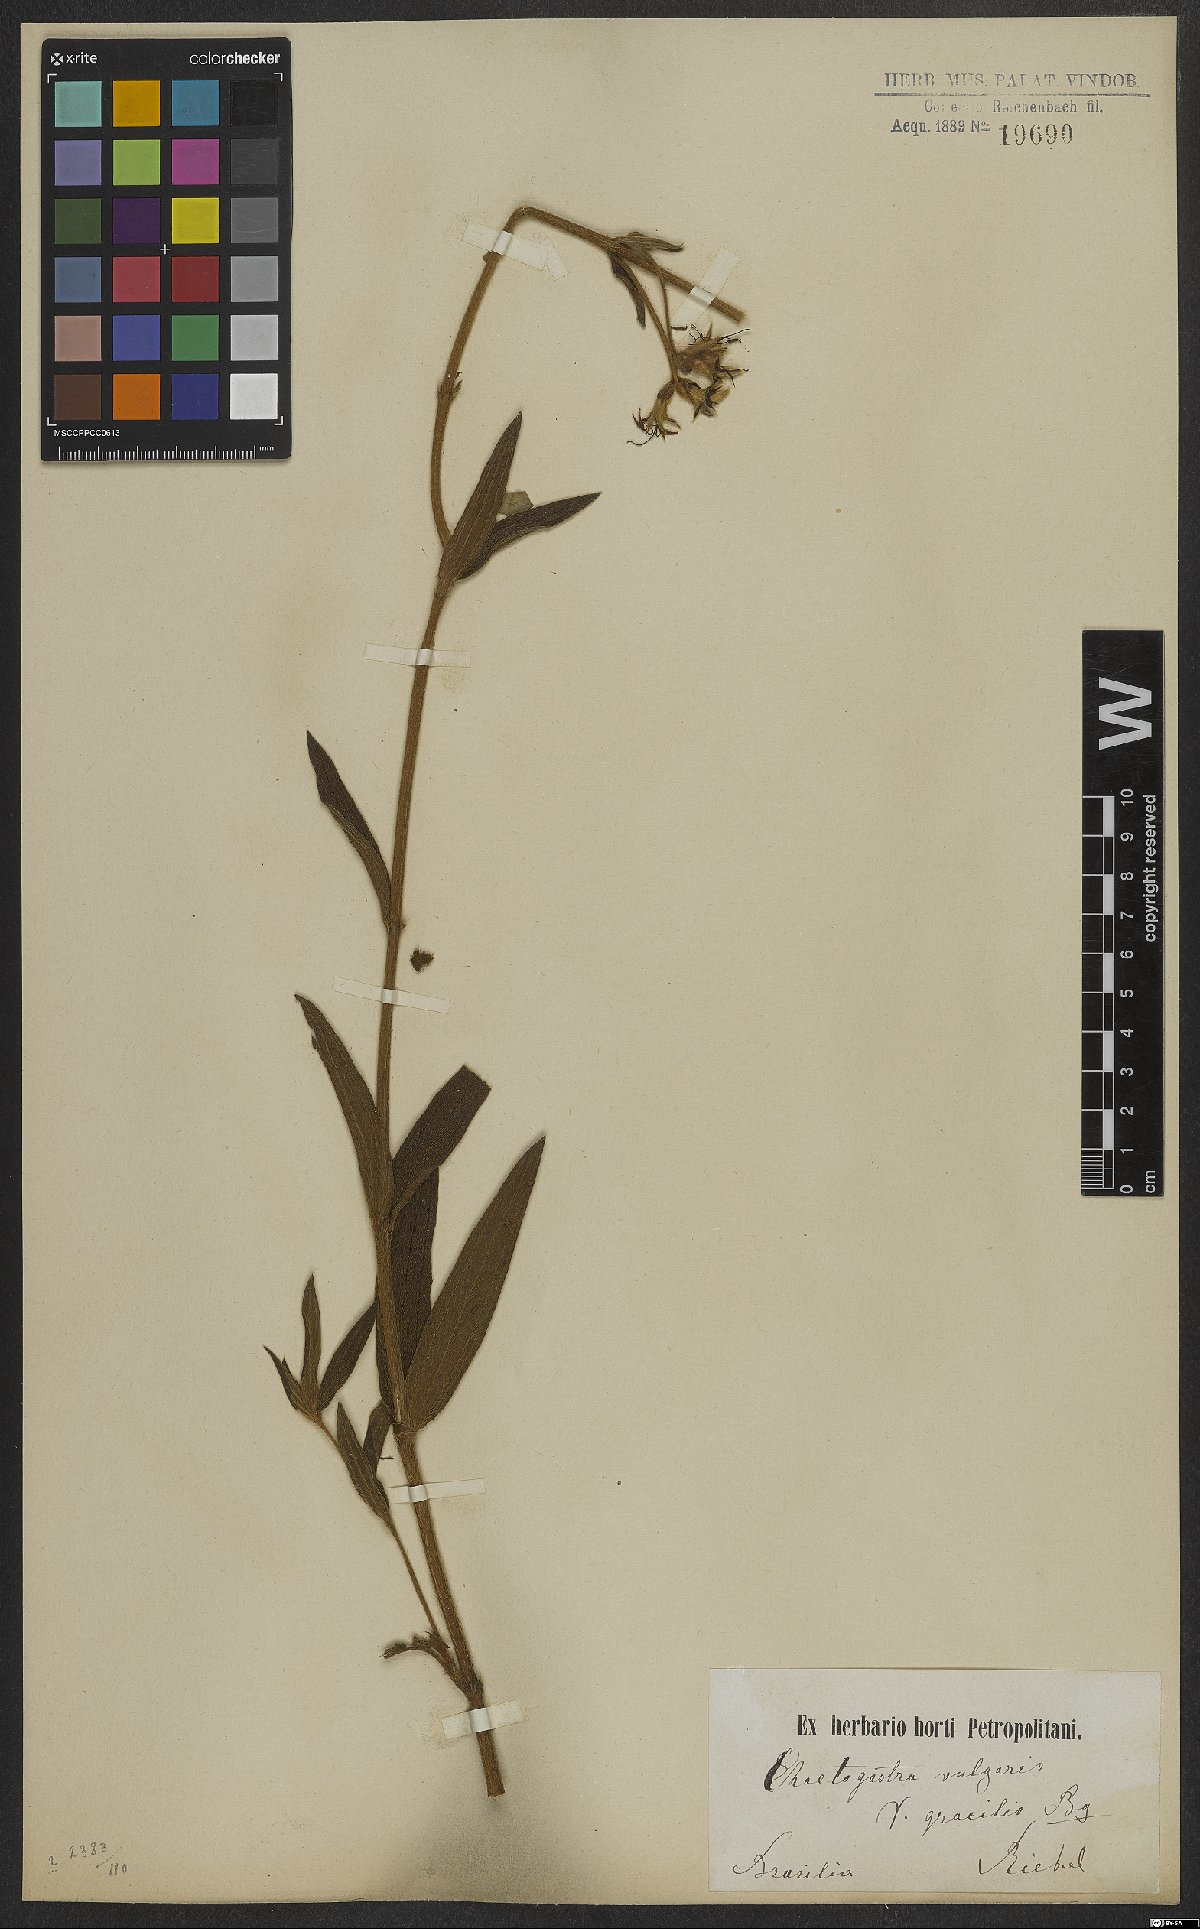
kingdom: Plantae
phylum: Tracheophyta
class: Magnoliopsida
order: Myrtales
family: Melastomataceae
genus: Chaetogastra
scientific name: Chaetogastra gracilis
